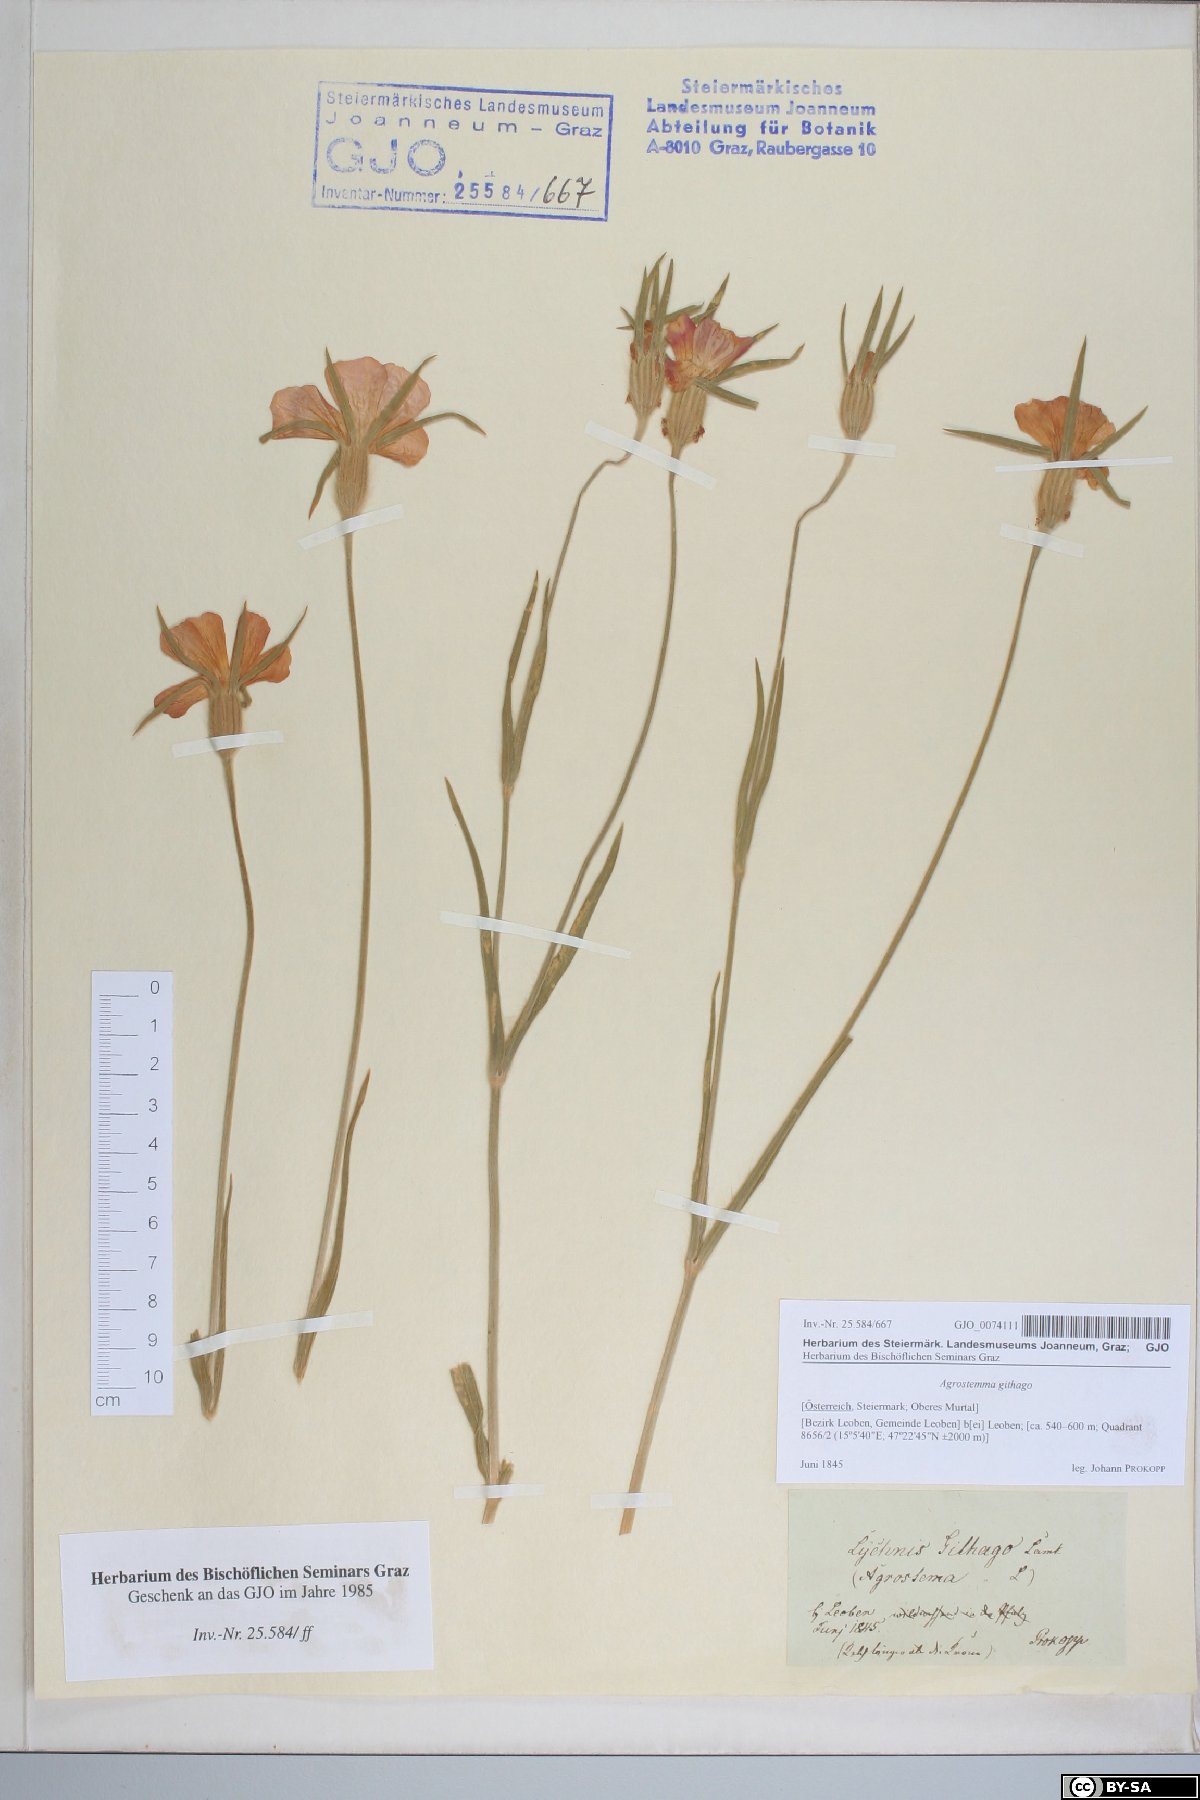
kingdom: Plantae
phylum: Tracheophyta
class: Magnoliopsida
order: Caryophyllales
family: Caryophyllaceae
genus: Agrostemma
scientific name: Agrostemma githago
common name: Common corncockle
